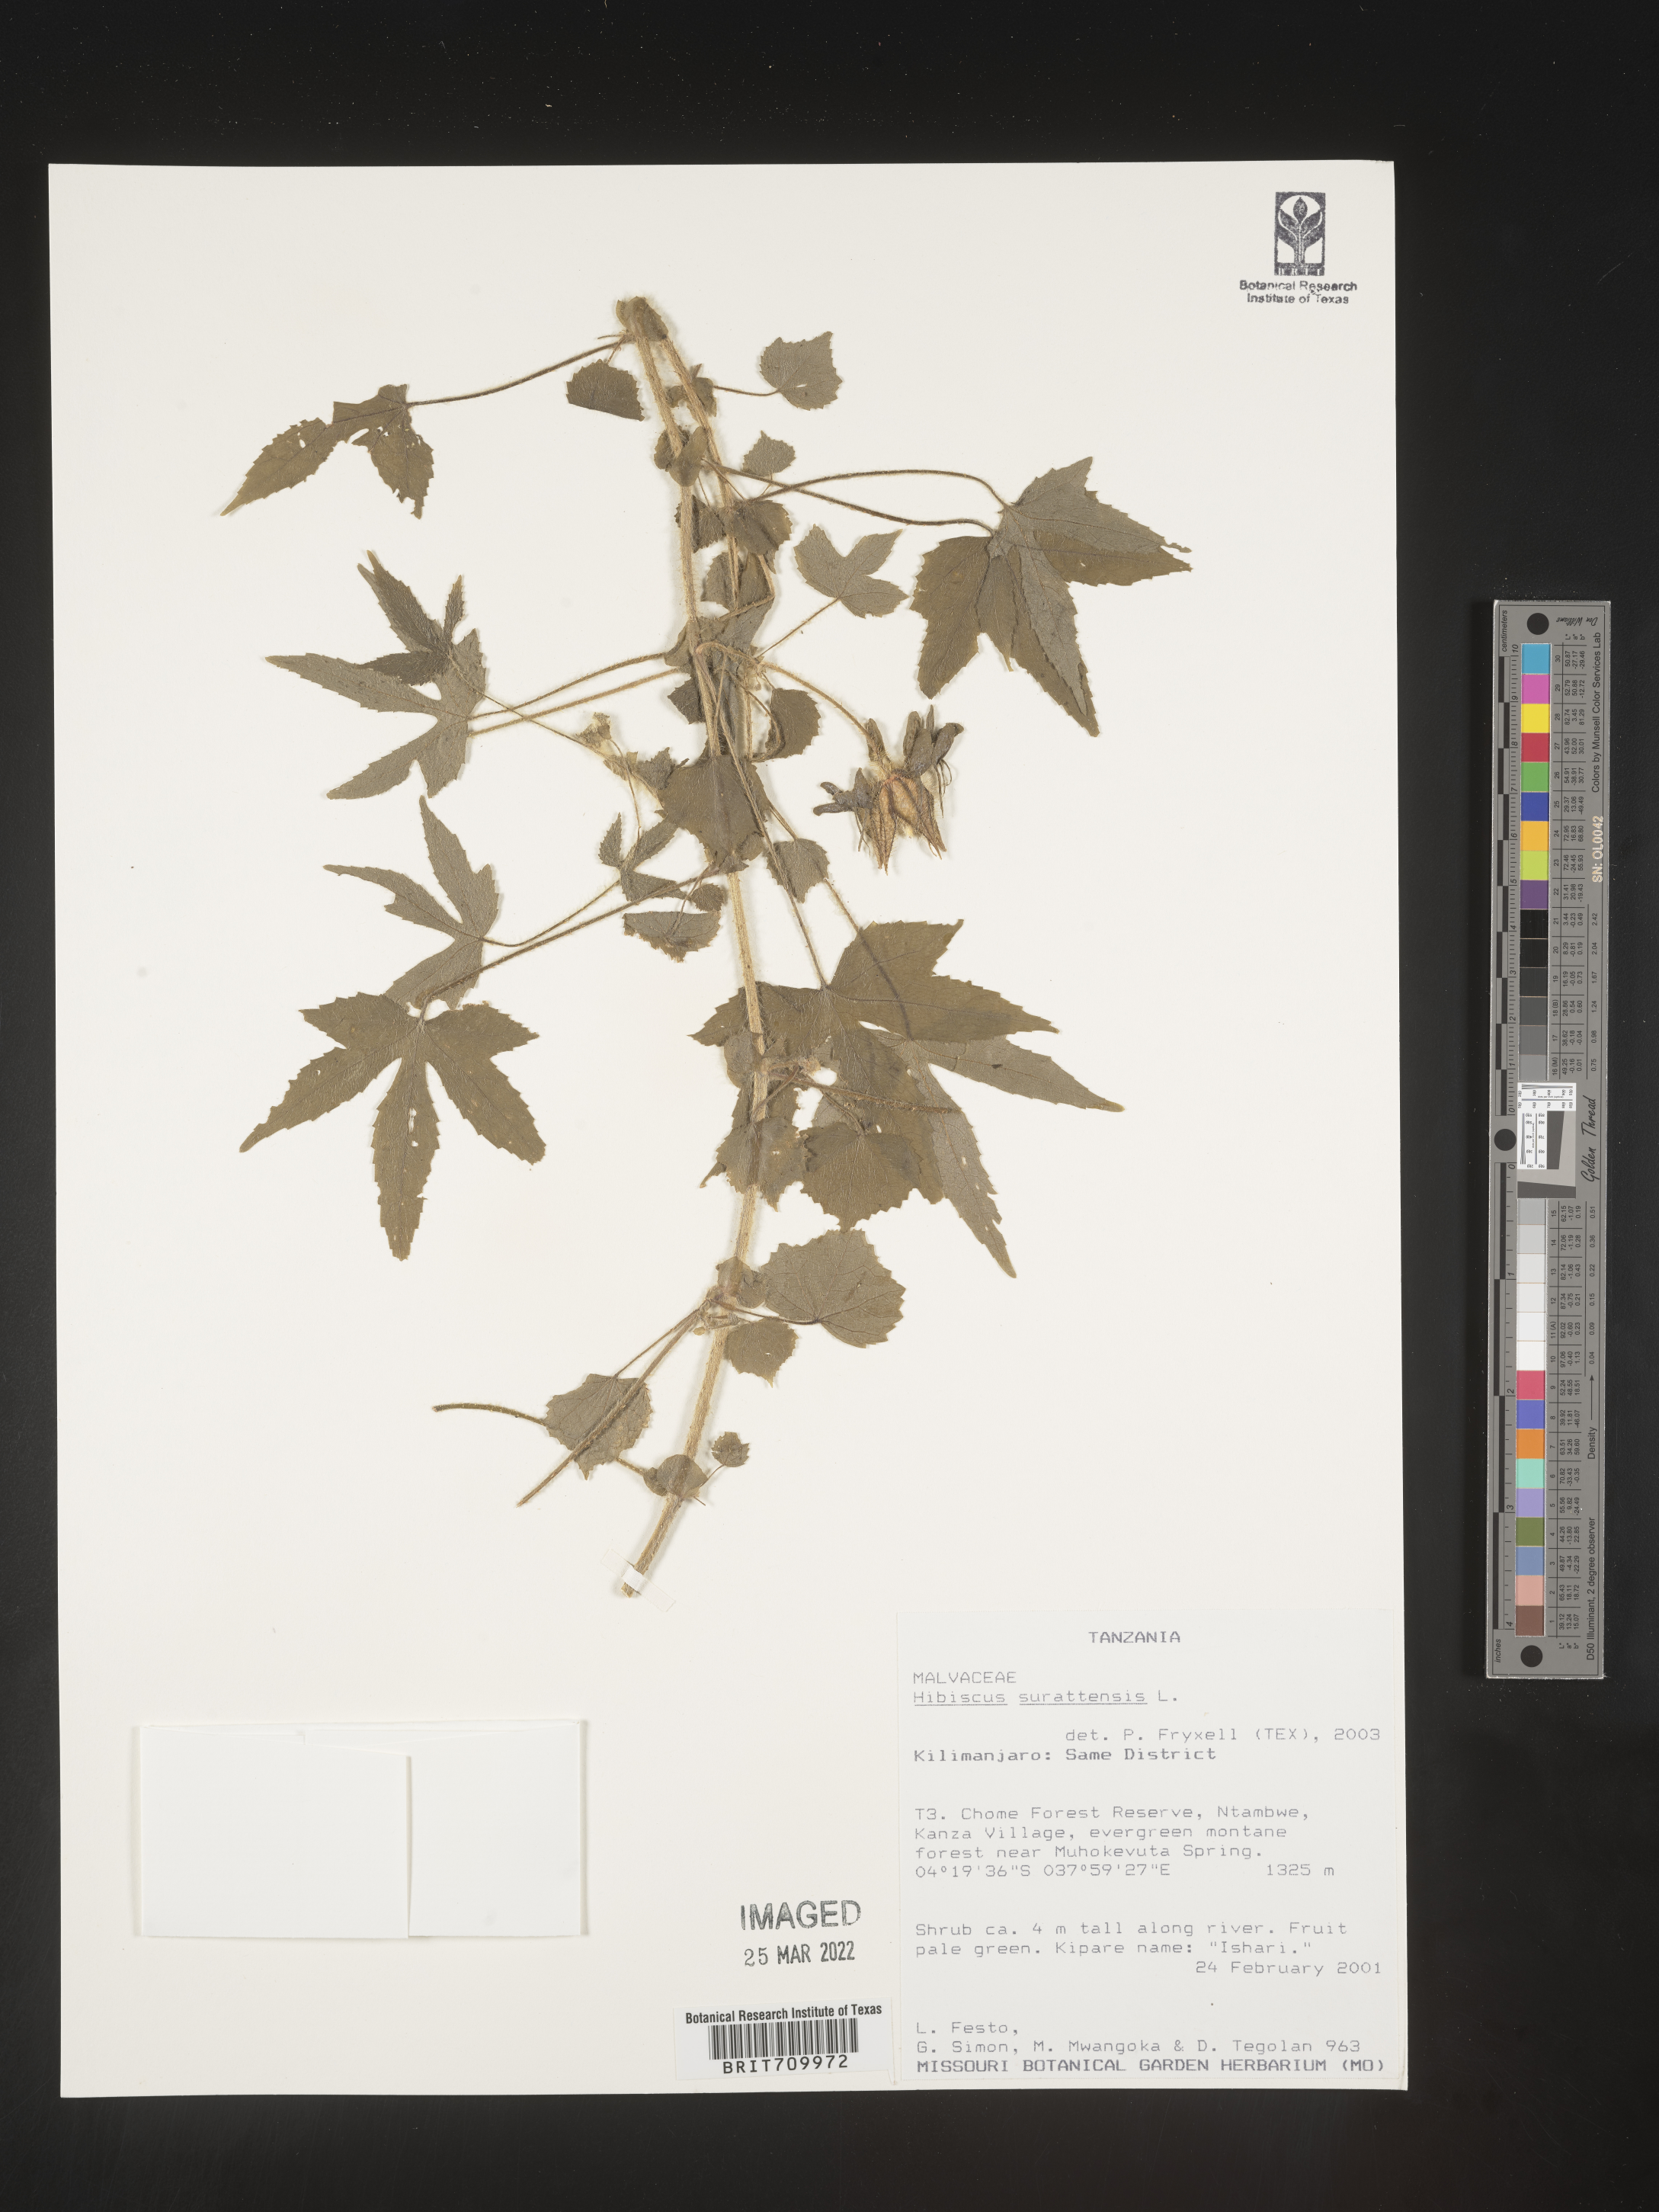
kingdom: Plantae
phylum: Tracheophyta
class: Magnoliopsida
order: Malvales
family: Malvaceae
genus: Hibiscus
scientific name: Hibiscus
